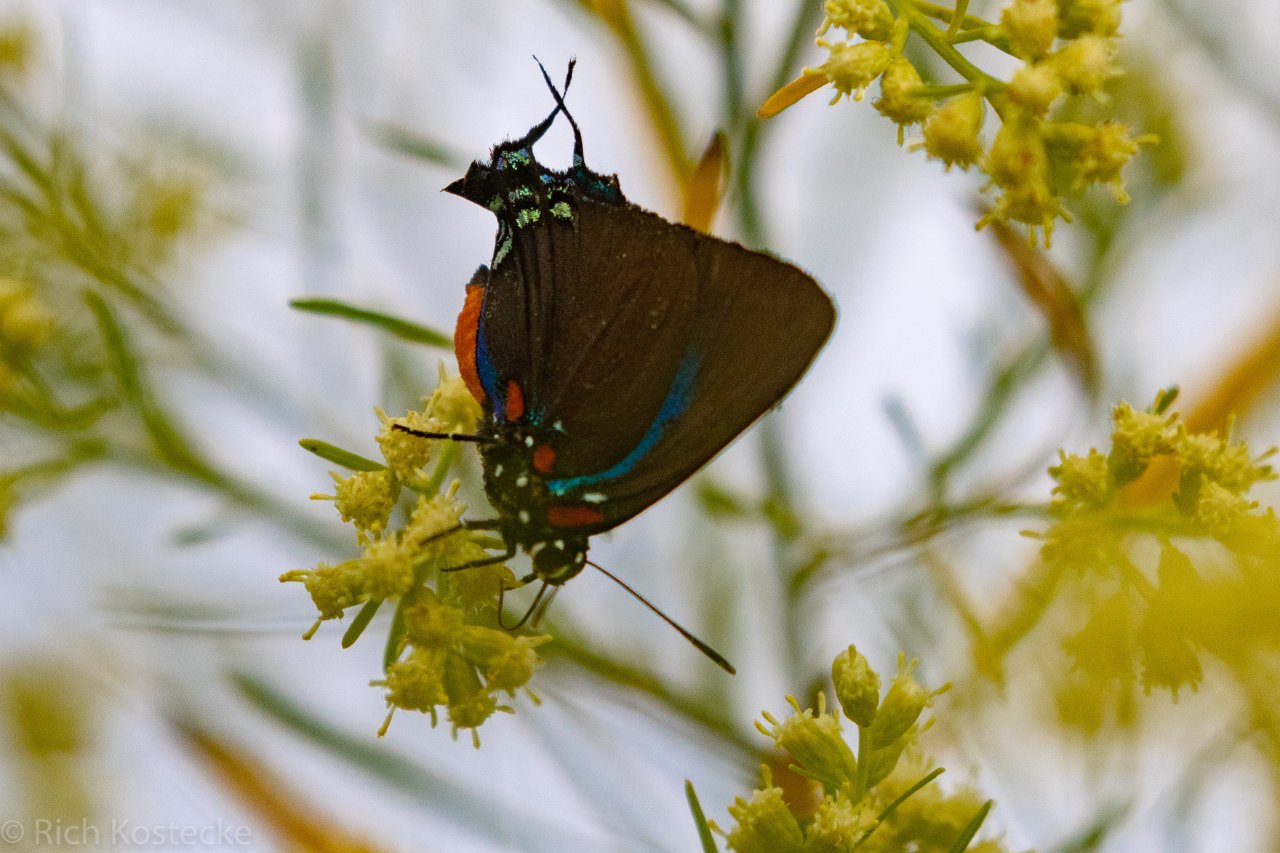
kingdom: Animalia
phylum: Arthropoda
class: Insecta
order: Lepidoptera
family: Lycaenidae
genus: Atlides
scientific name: Atlides halesus
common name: Great Purple Hairstreak
